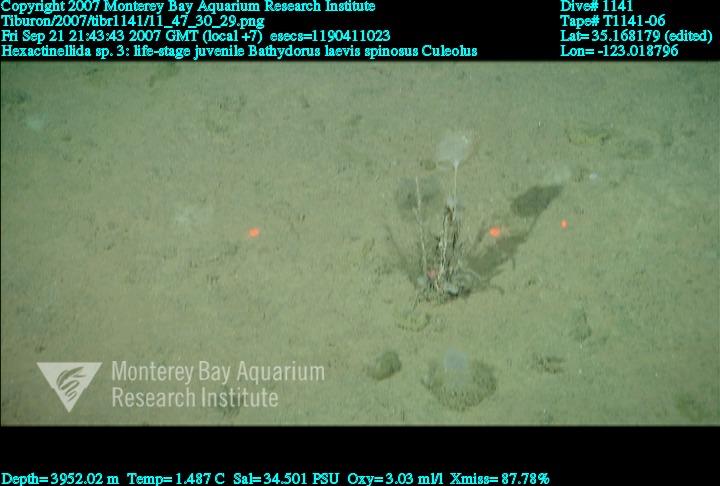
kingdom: Animalia
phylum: Porifera
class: Hexactinellida
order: Lyssacinosida
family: Rossellidae
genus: Bathydorus
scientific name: Bathydorus spinosus
